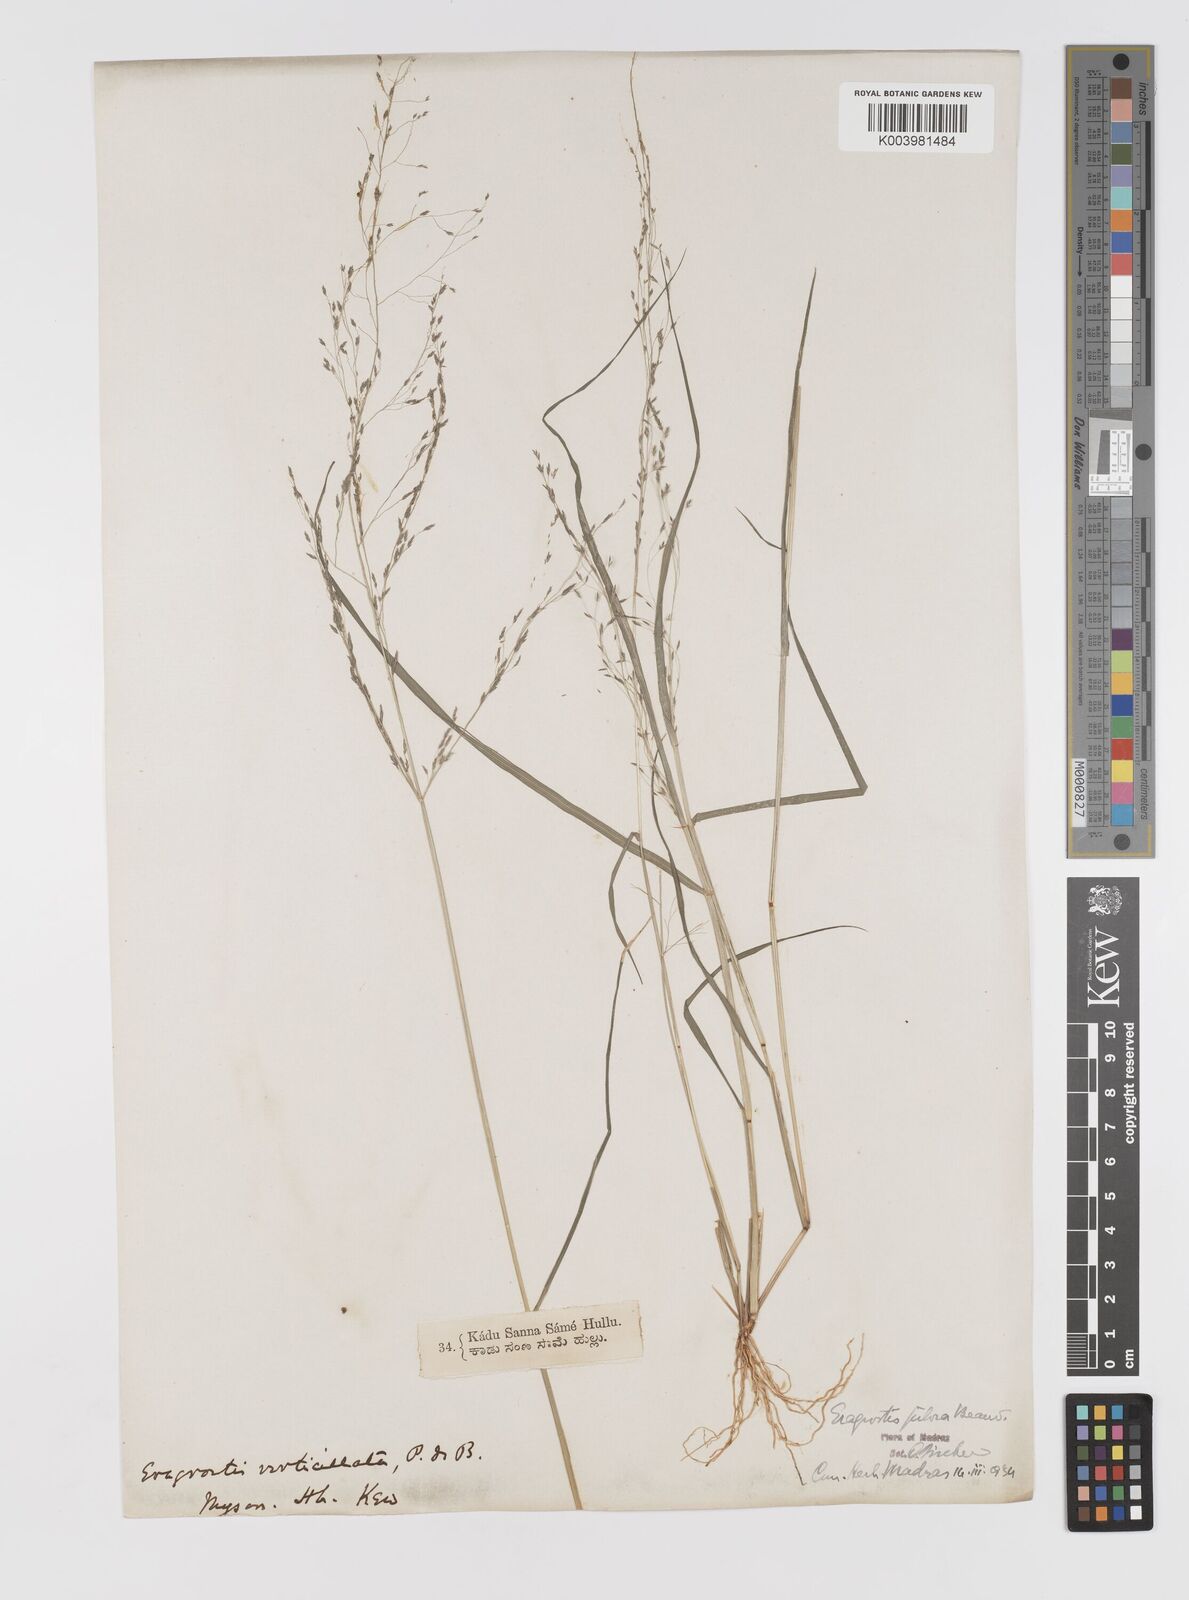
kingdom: Plantae
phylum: Tracheophyta
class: Liliopsida
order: Poales
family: Poaceae
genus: Eragrostis
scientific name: Eragrostis pilosa
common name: Indian lovegrass
